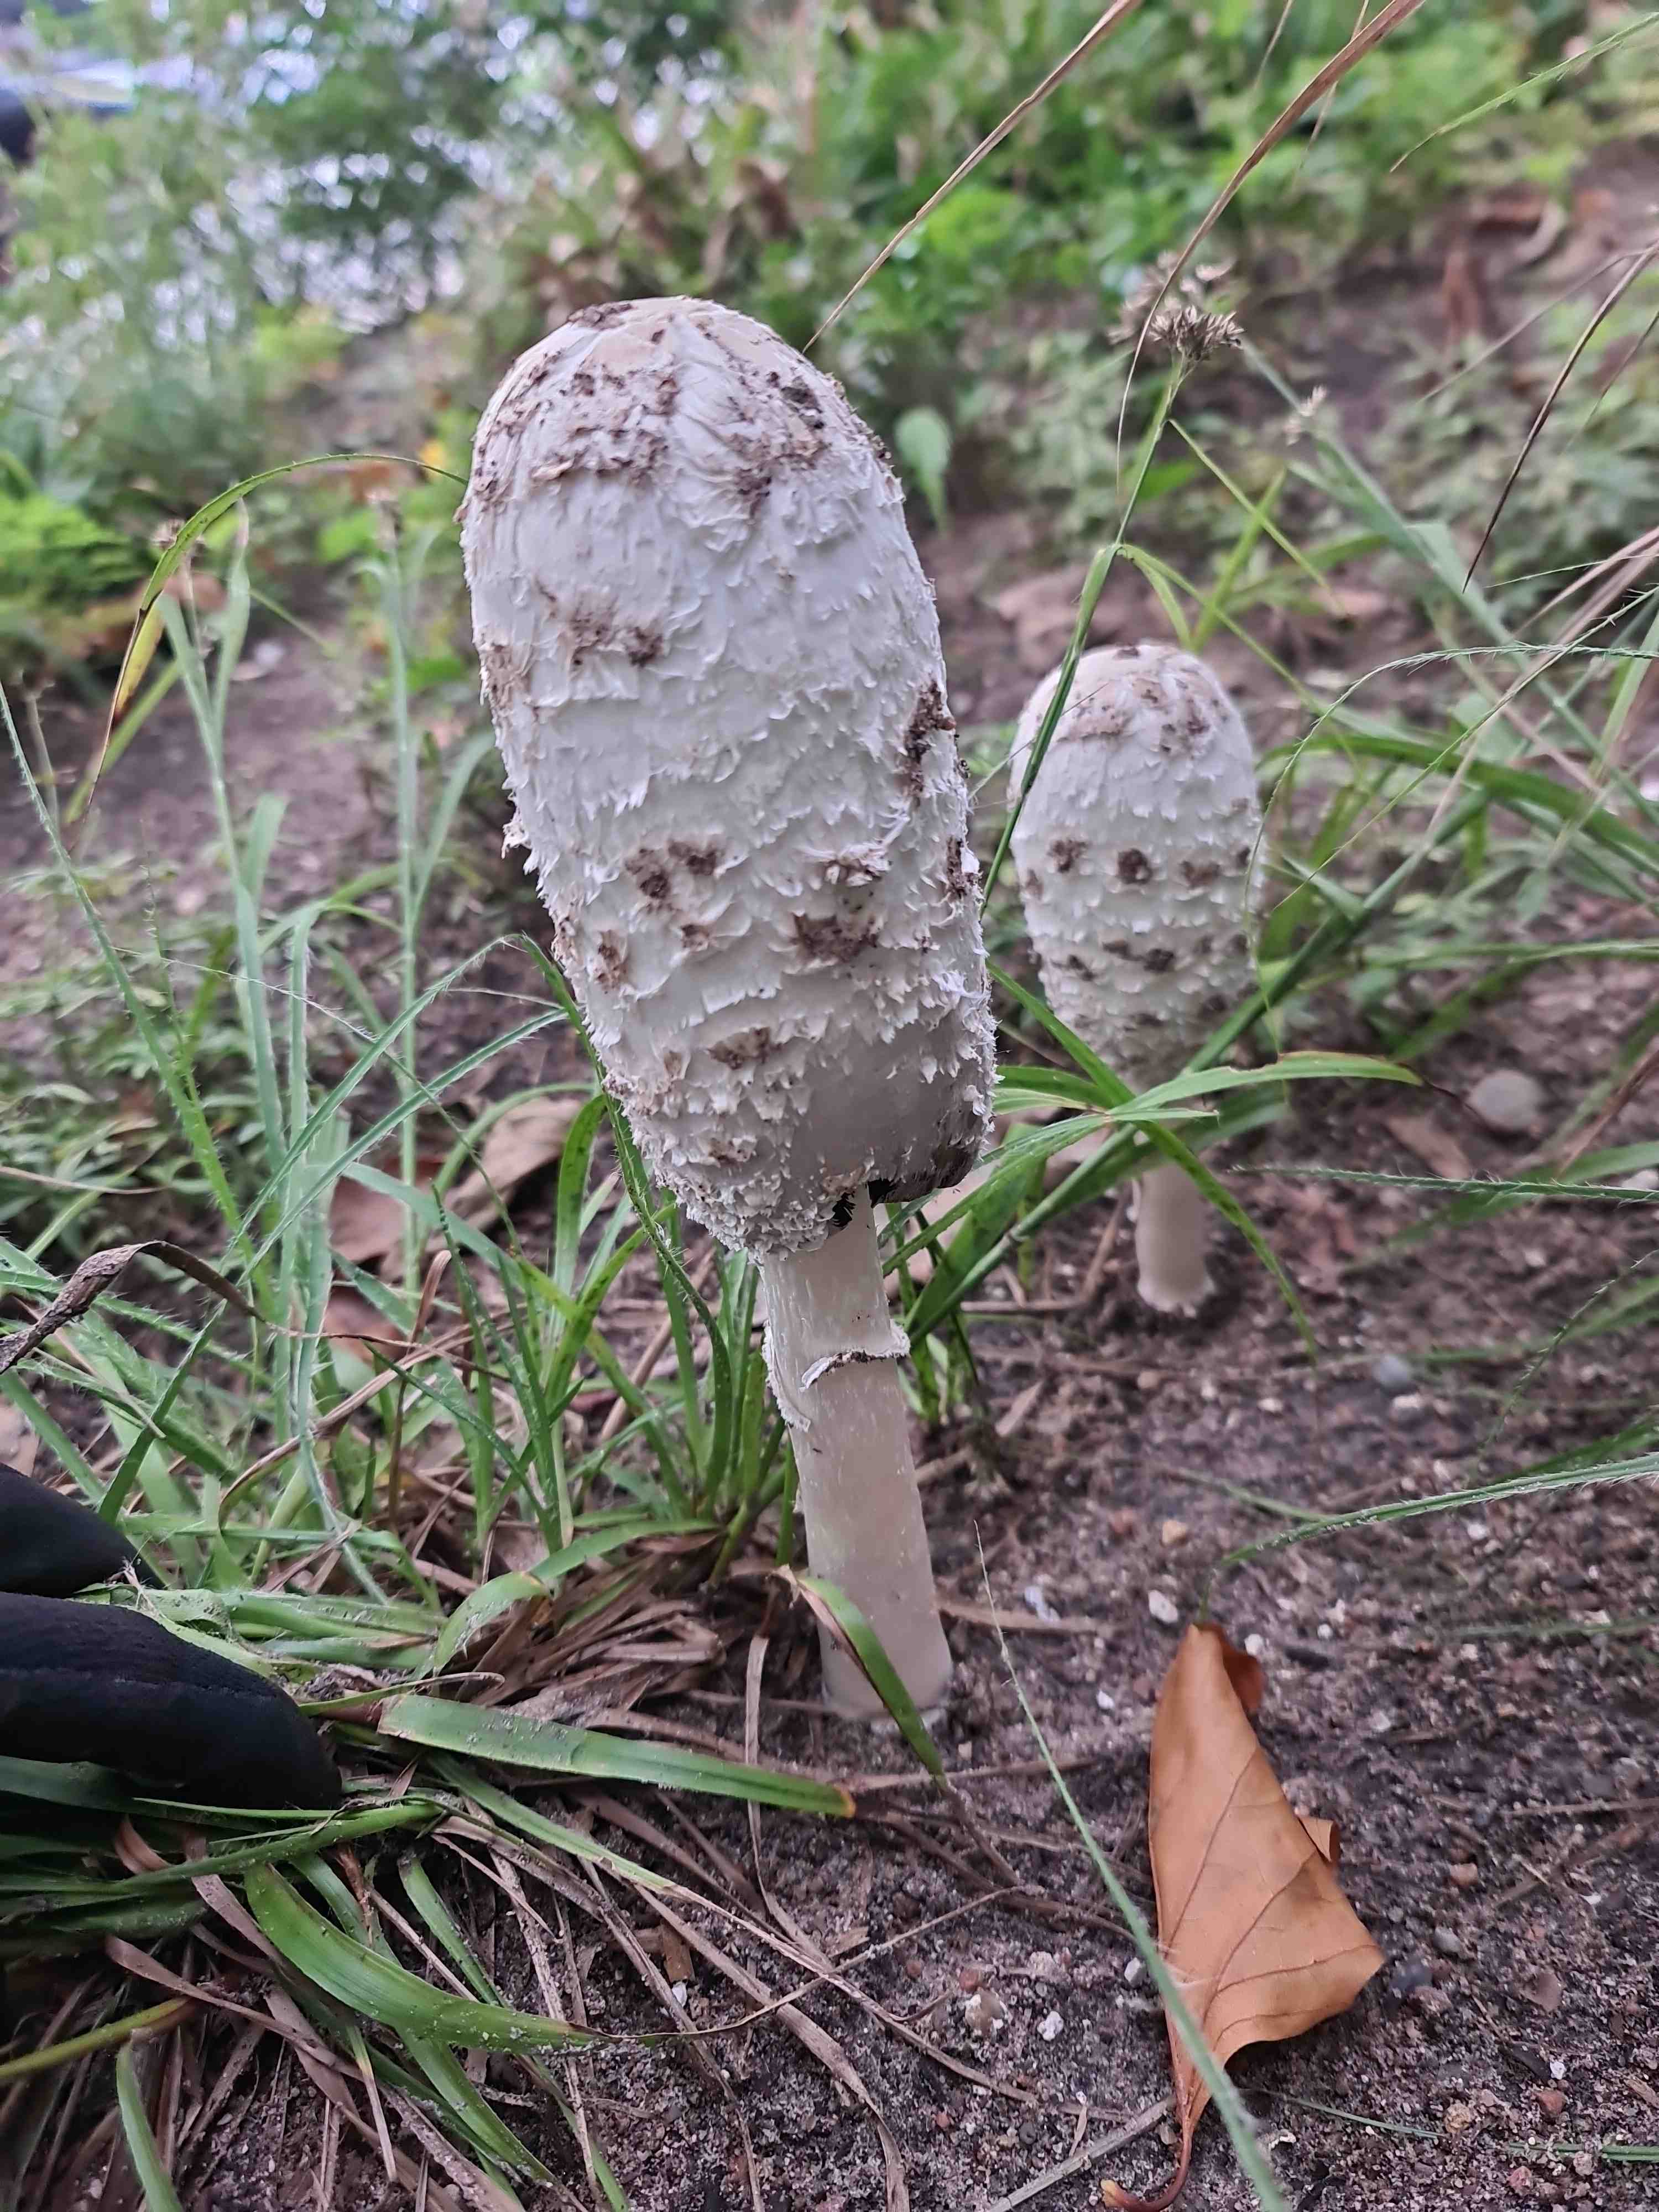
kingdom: Fungi
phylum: Basidiomycota
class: Agaricomycetes
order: Agaricales
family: Agaricaceae
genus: Coprinus
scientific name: Coprinus comatus
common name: stor parykhat
